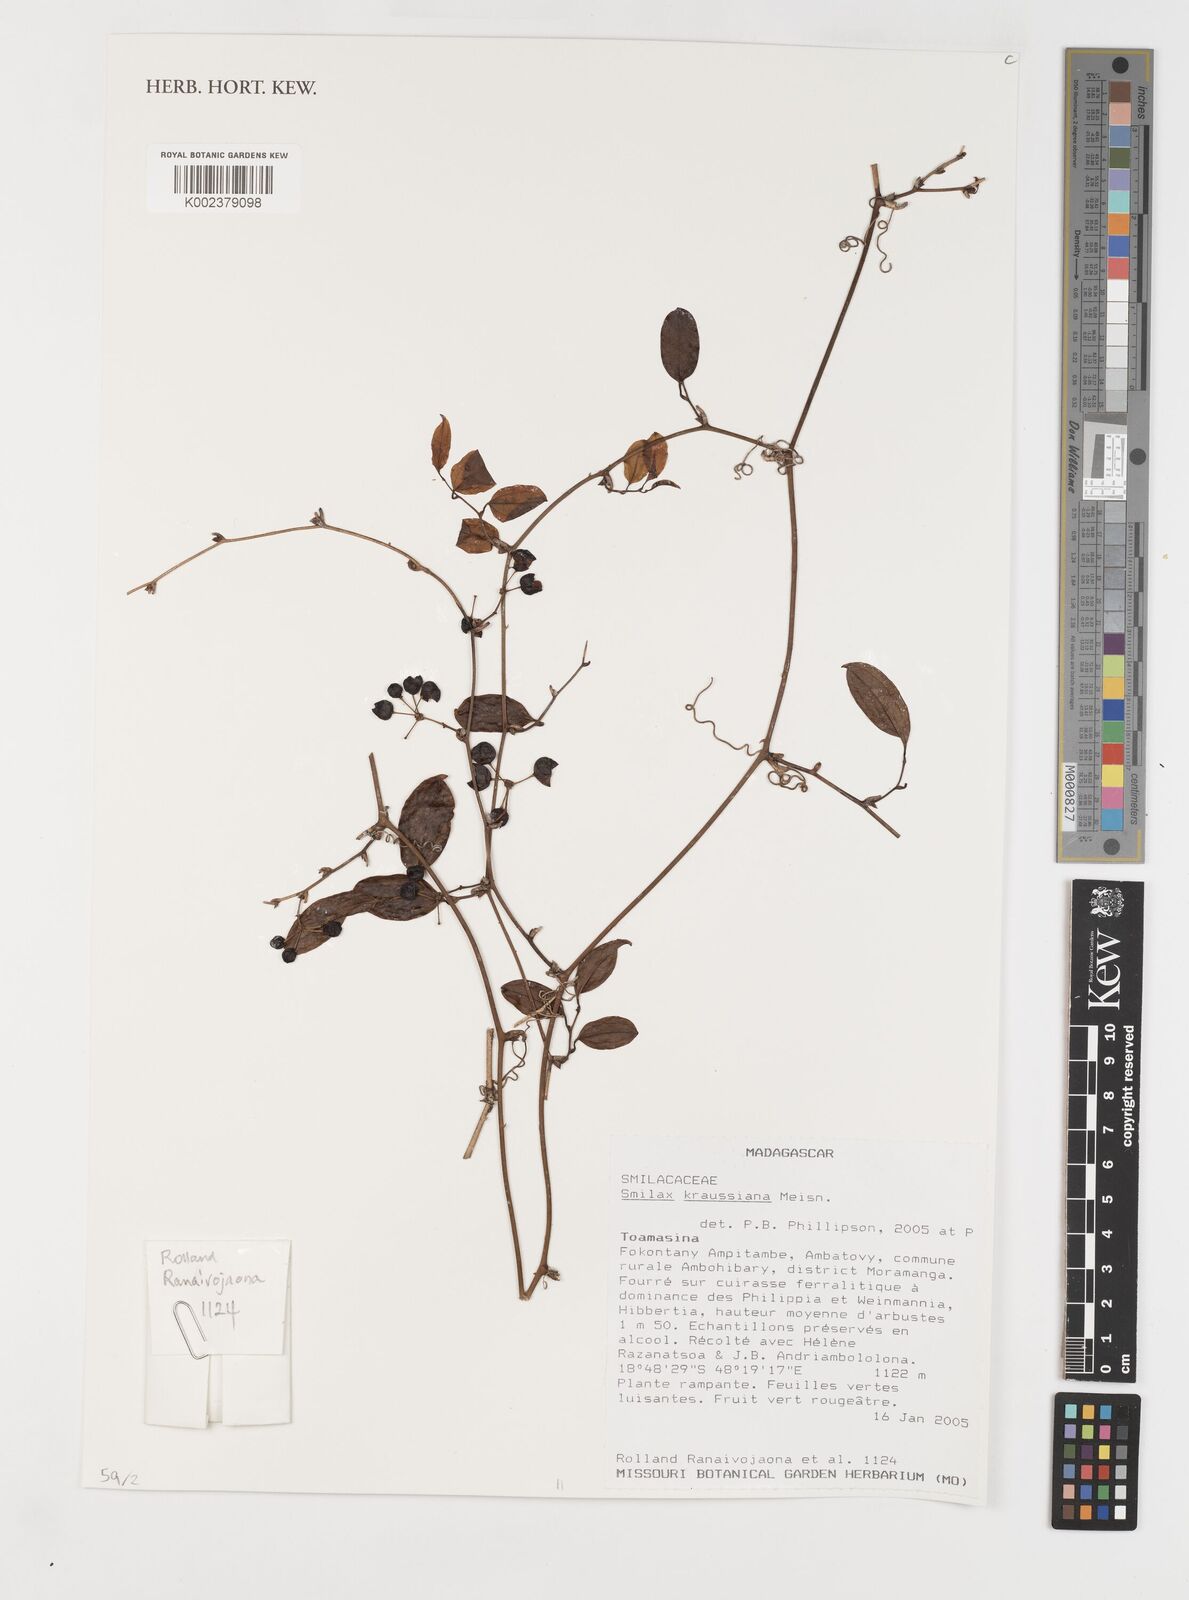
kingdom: Plantae
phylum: Tracheophyta
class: Liliopsida
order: Liliales
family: Smilacaceae
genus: Smilax
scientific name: Smilax anceps
